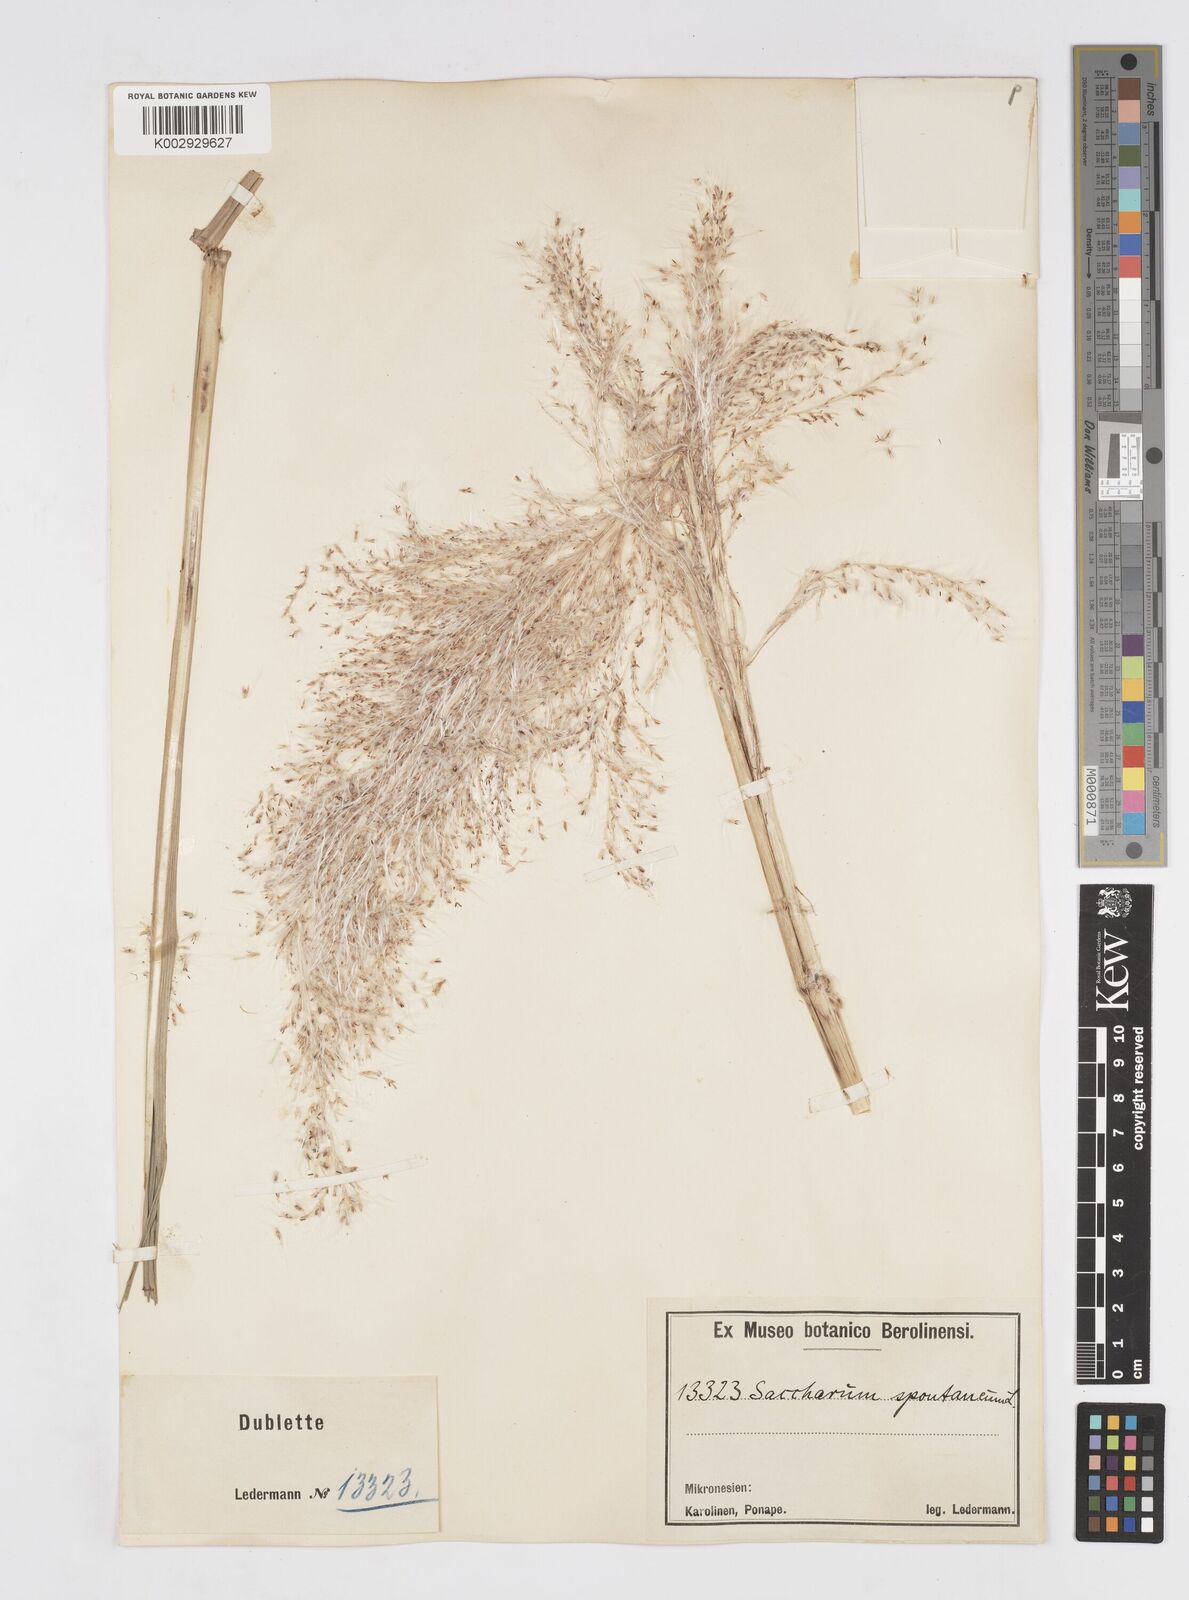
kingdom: Plantae
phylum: Tracheophyta
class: Liliopsida
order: Poales
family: Poaceae
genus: Saccharum
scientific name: Saccharum spontaneum
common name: Wild sugarcane
